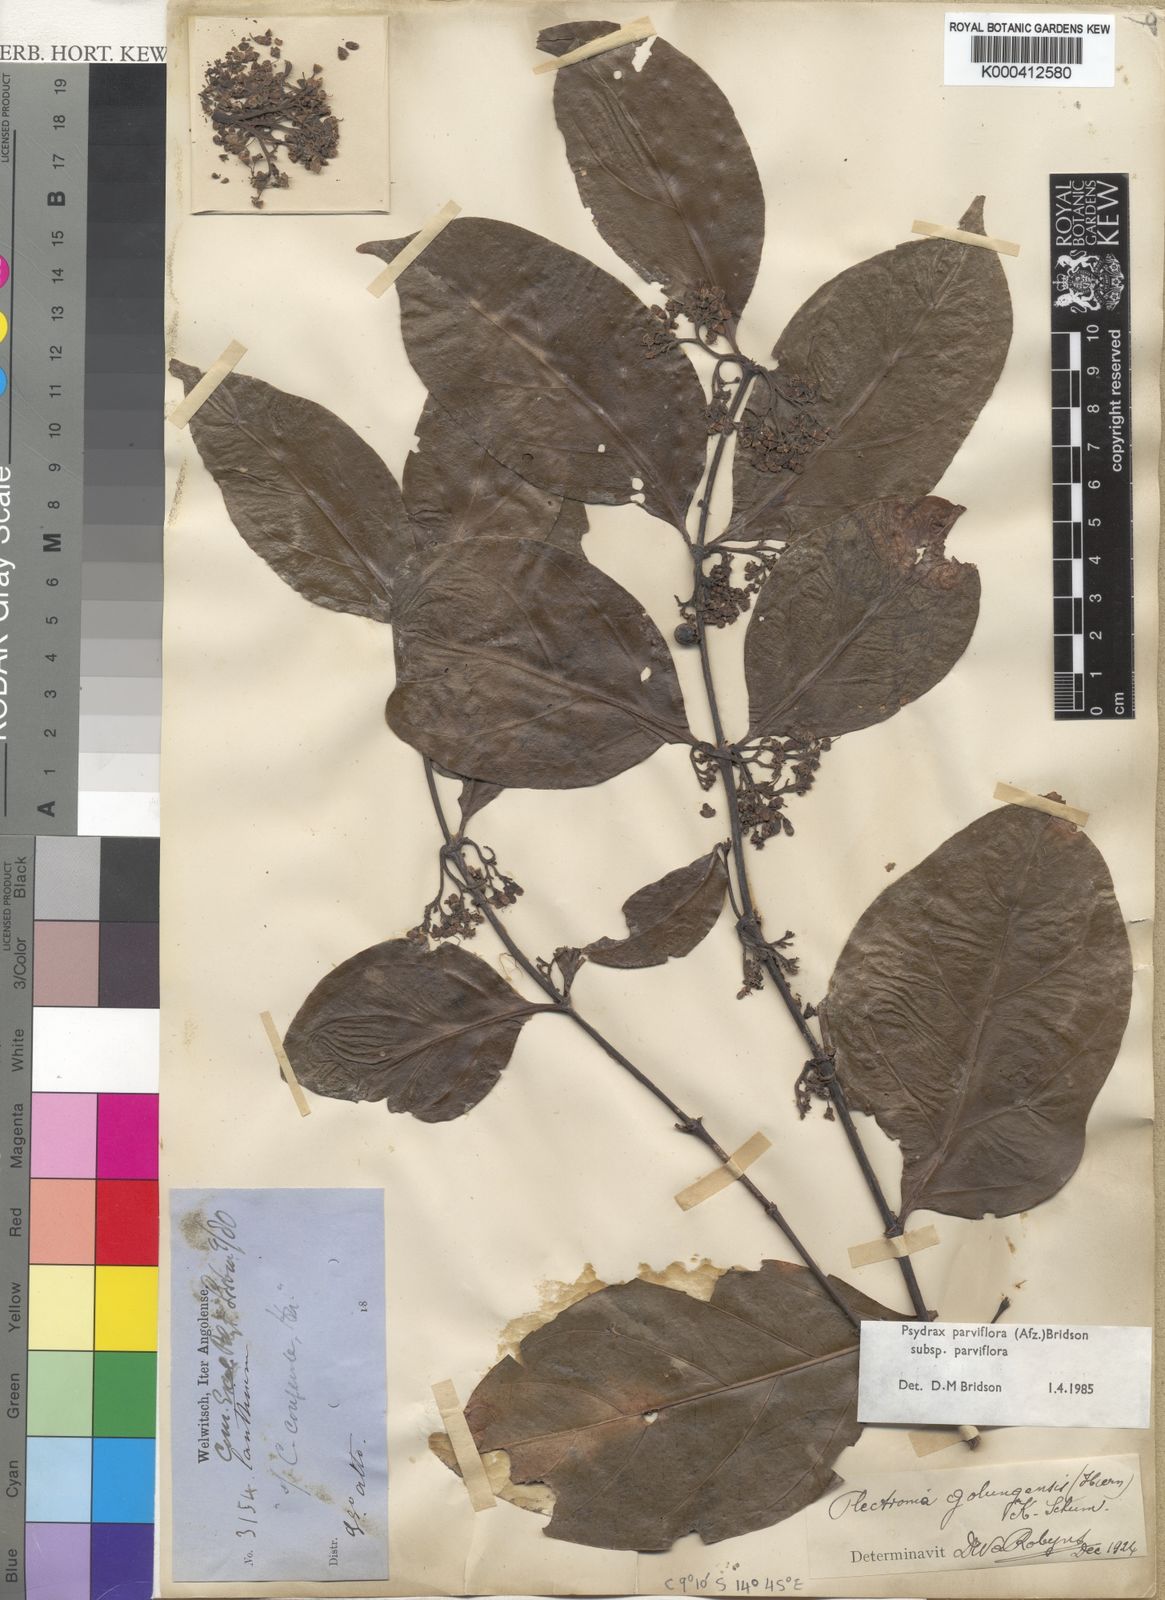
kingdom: Plantae
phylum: Tracheophyta
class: Magnoliopsida
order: Gentianales
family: Rubiaceae
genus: Psydrax
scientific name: Psydrax parviflorus
